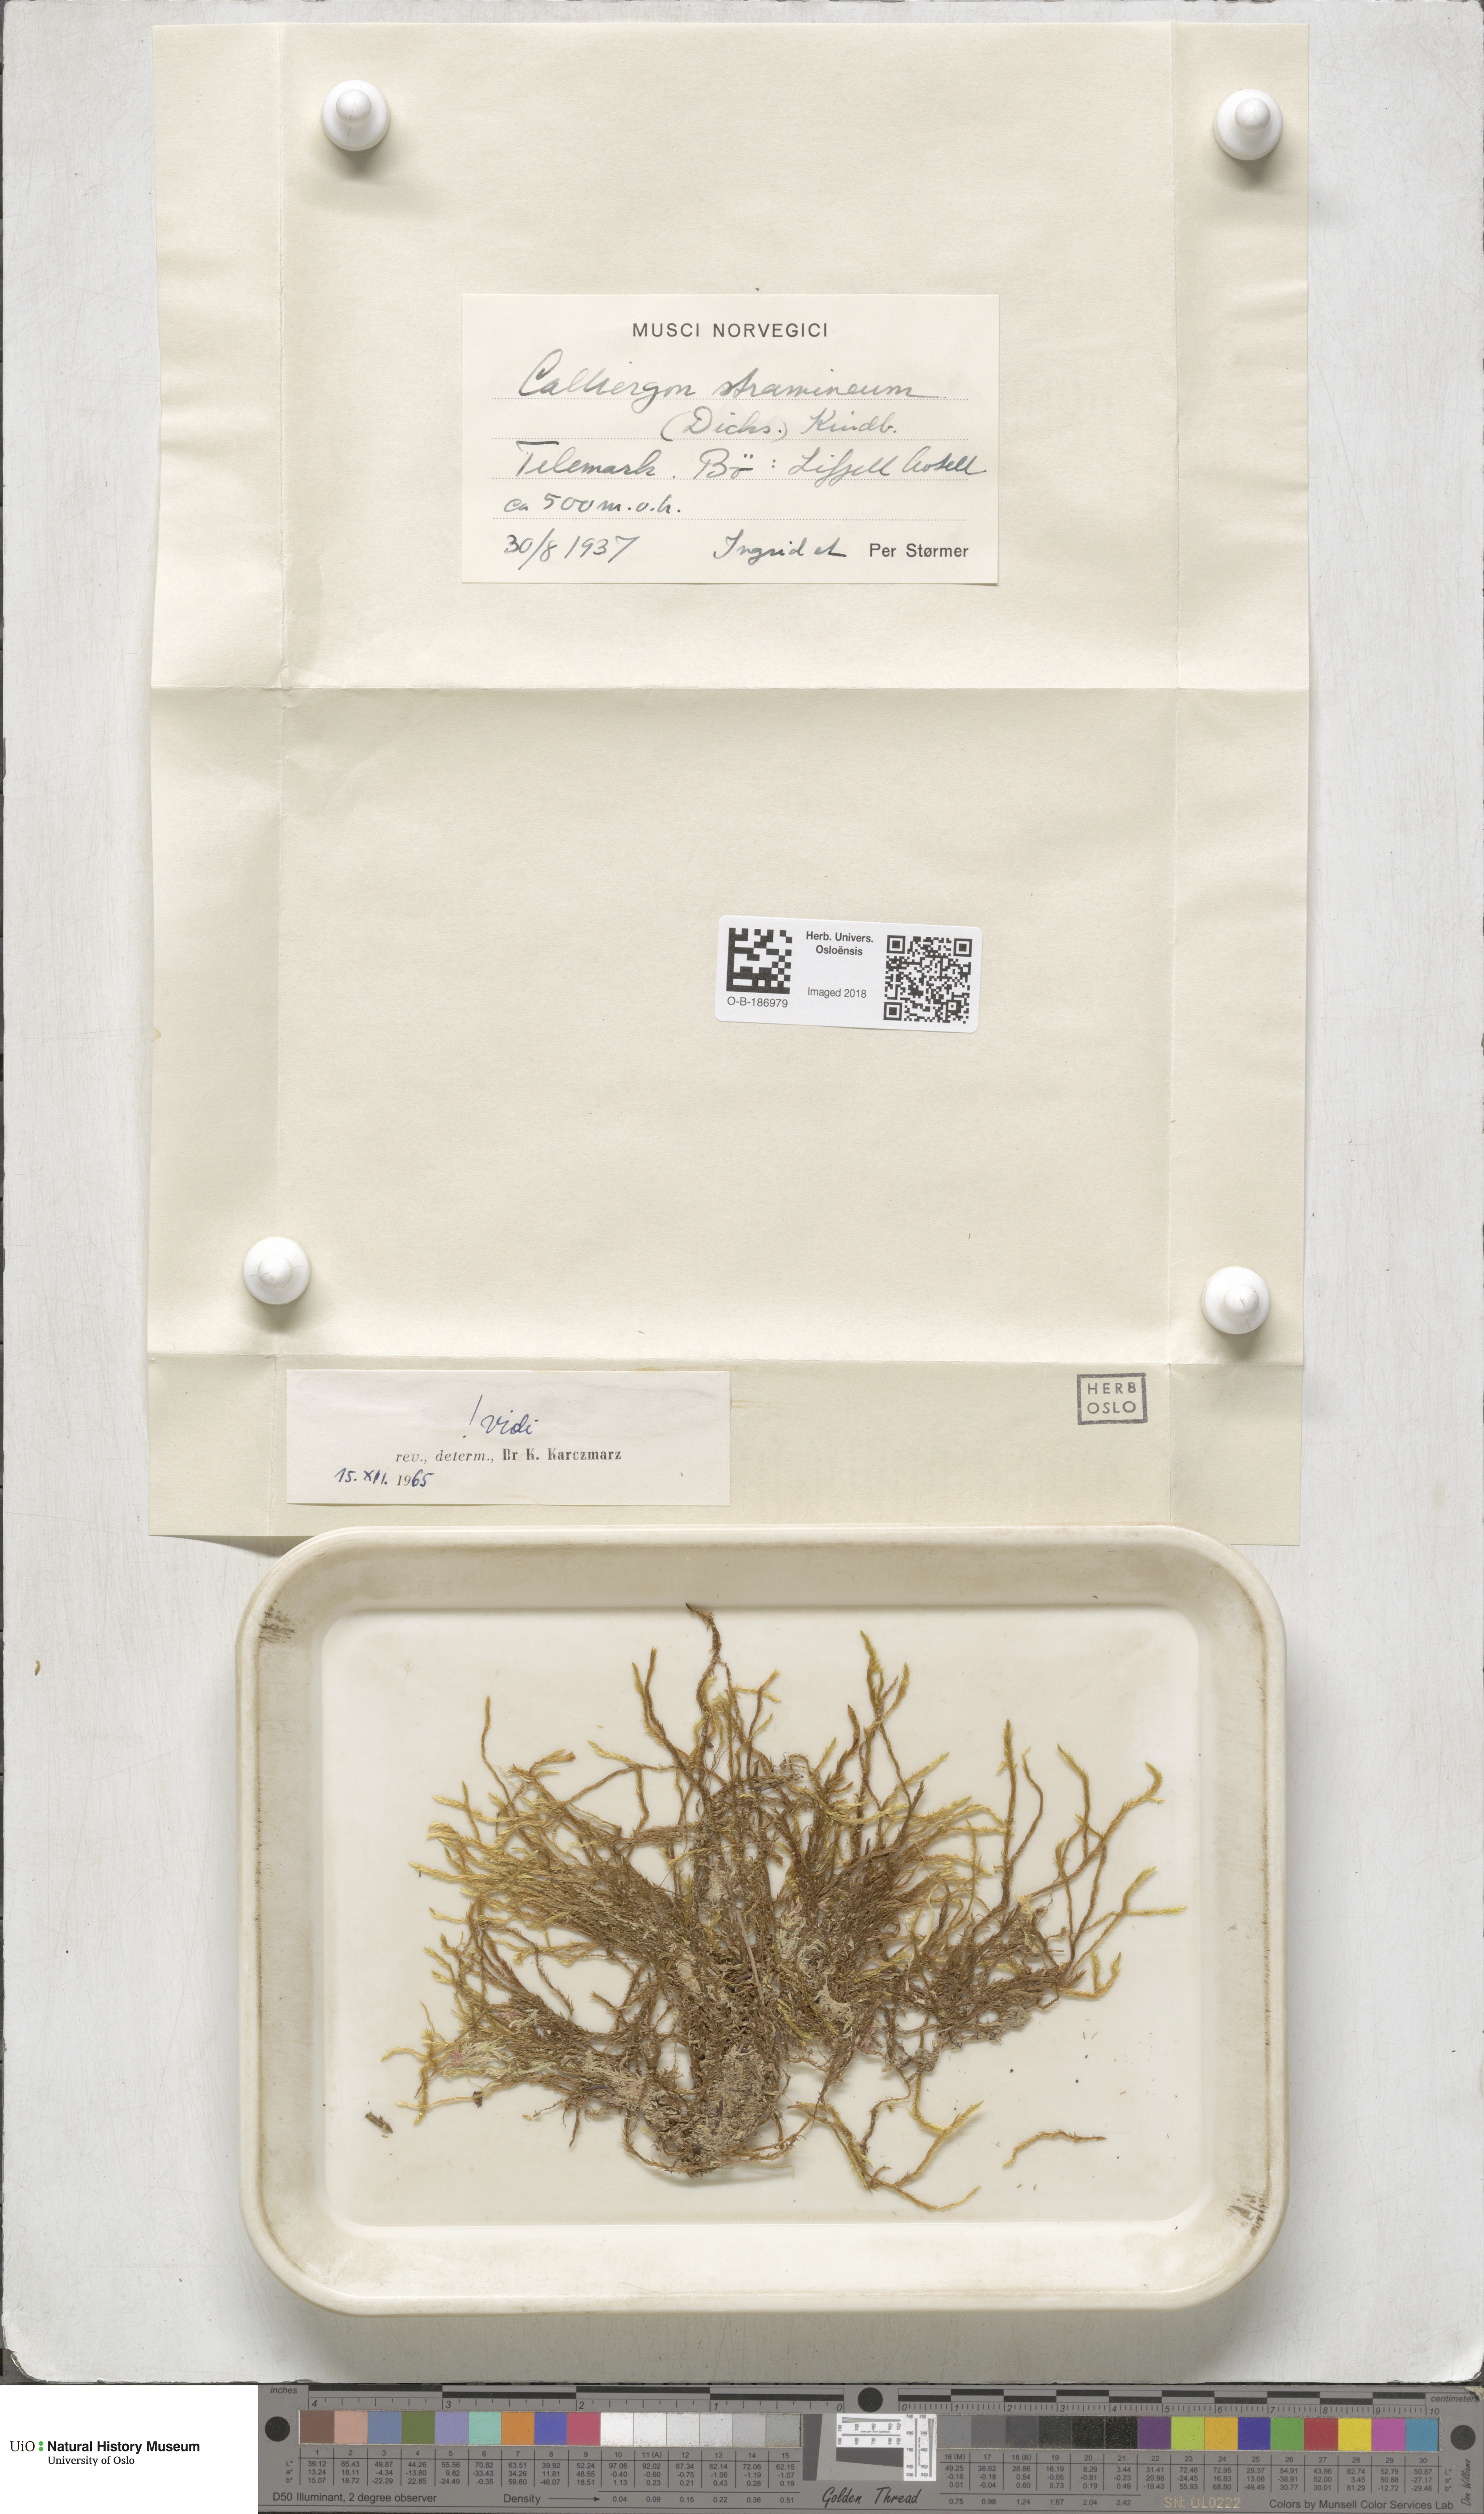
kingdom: Plantae
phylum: Bryophyta
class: Bryopsida
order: Hypnales
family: Calliergonaceae
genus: Straminergon
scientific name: Straminergon stramineum
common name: Straw moss
